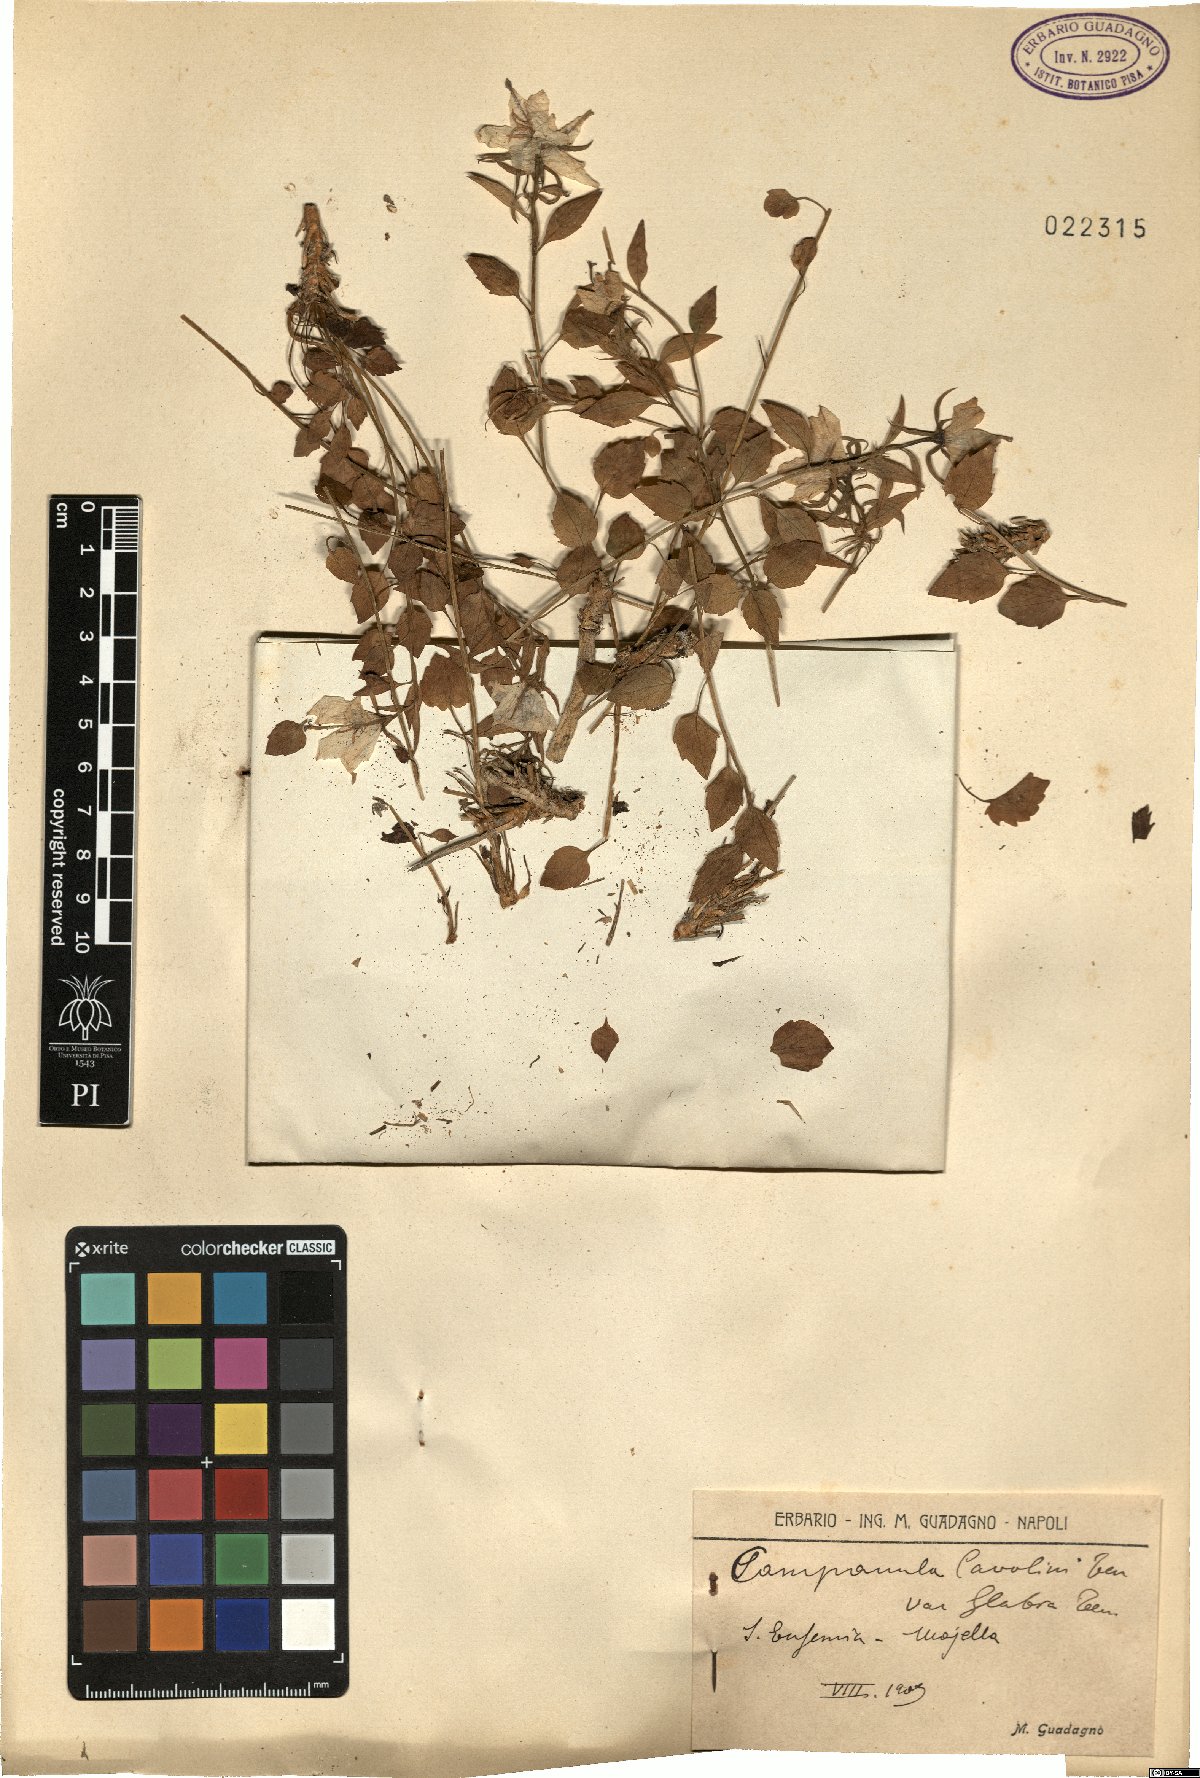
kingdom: Plantae
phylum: Tracheophyta
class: Magnoliopsida
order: Asterales
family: Campanulaceae
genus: Campanula
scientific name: Campanula fragilis
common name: Italian bellflower
